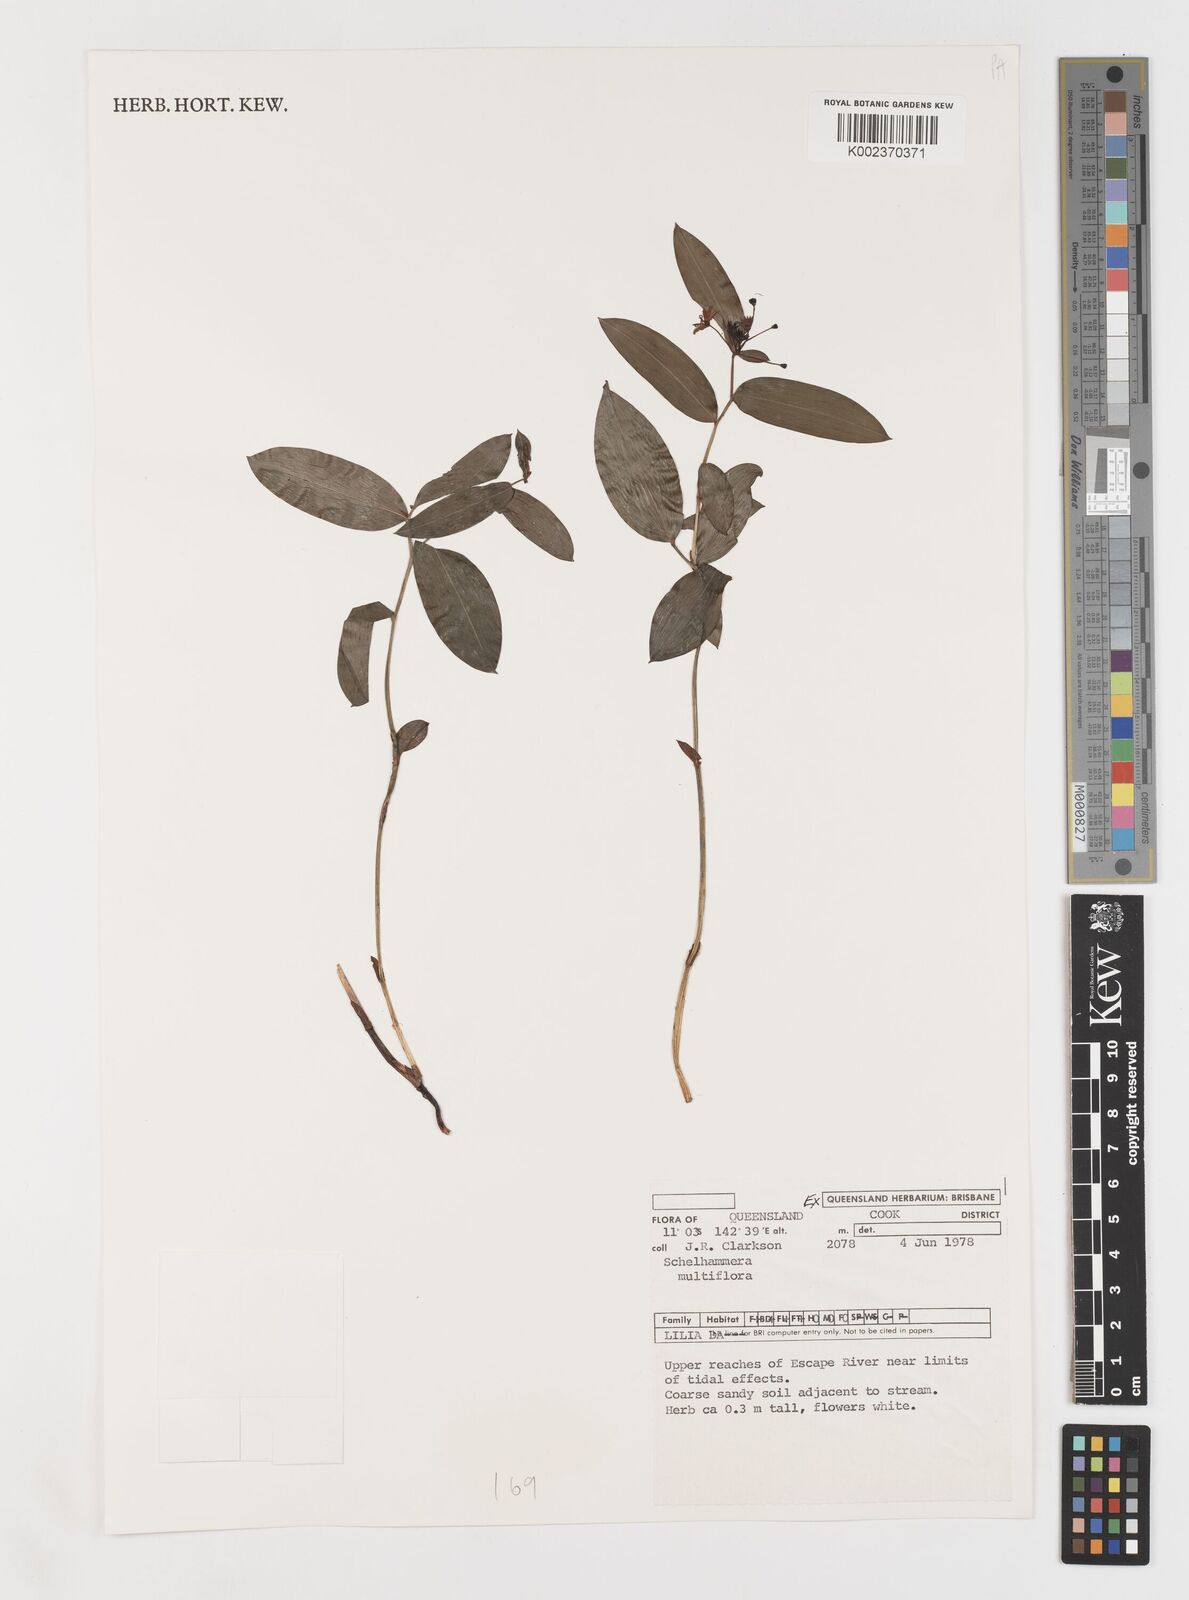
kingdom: Plantae
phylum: Tracheophyta
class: Liliopsida
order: Liliales
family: Colchicaceae
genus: Schelhammera
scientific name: Schelhammera multiflora
